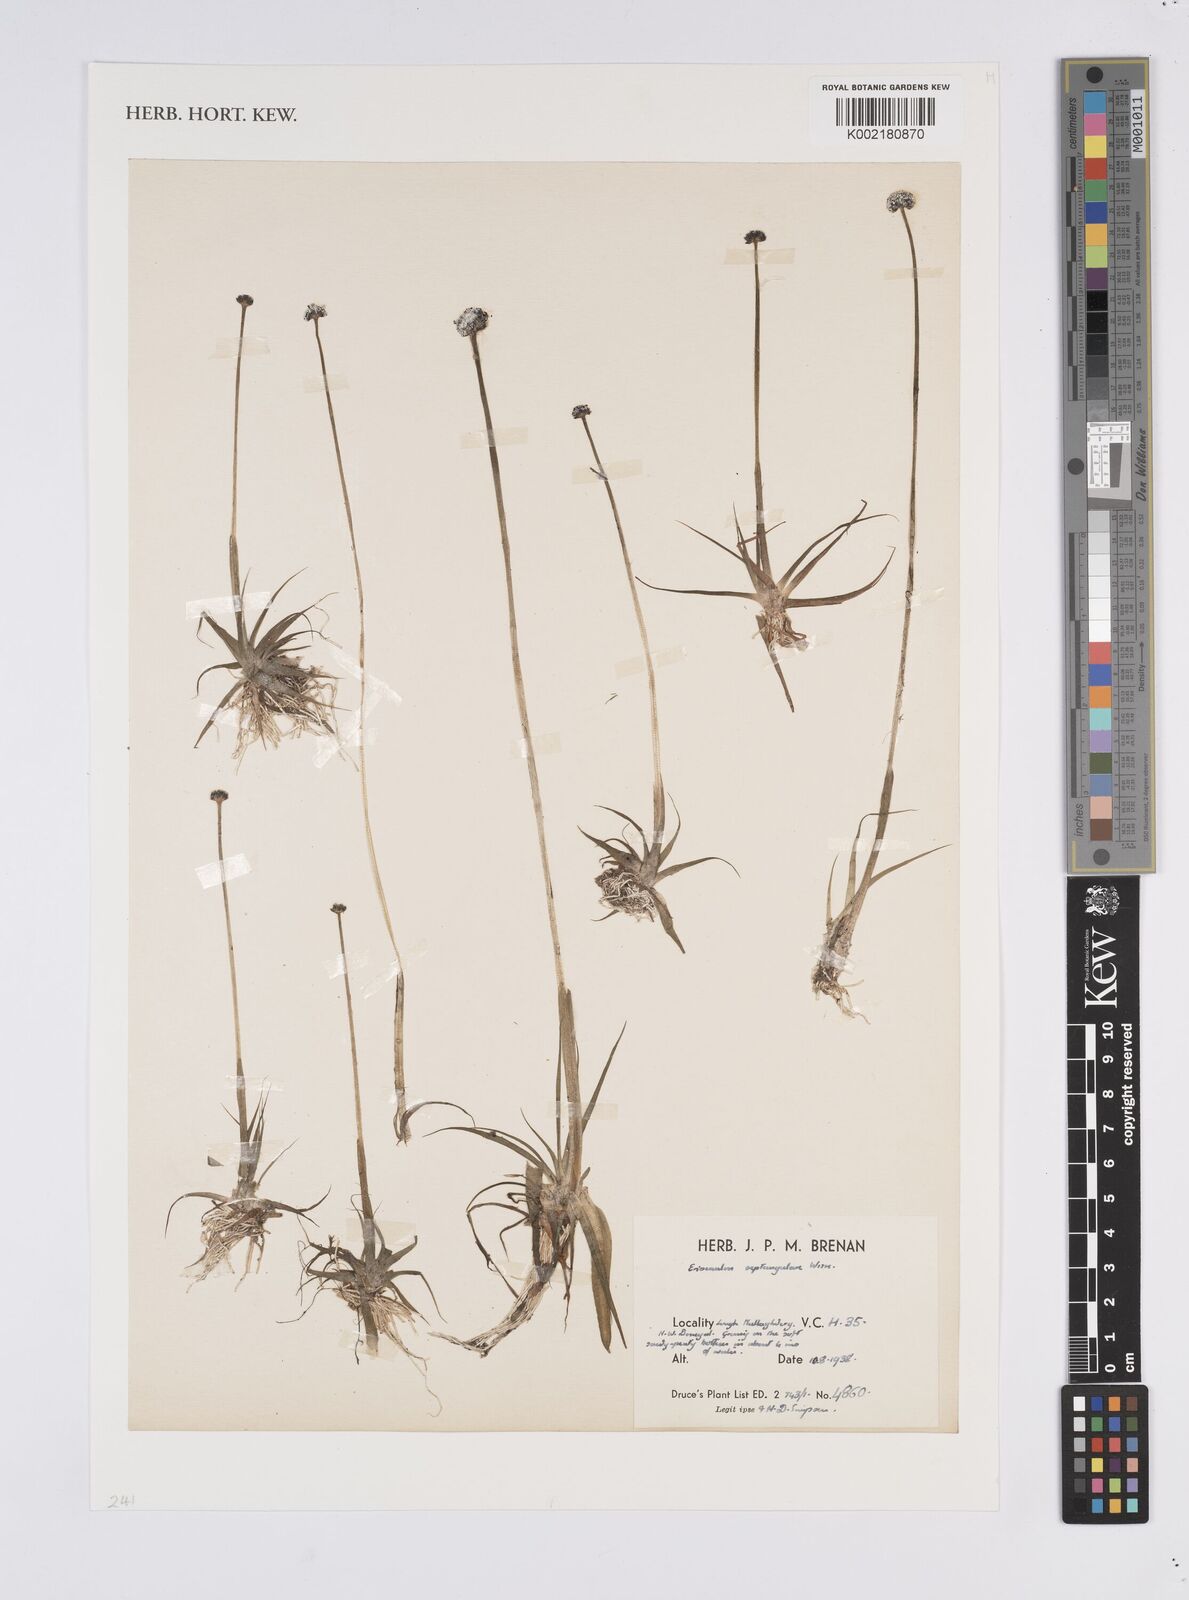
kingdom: Plantae
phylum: Tracheophyta
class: Liliopsida
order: Poales
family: Eriocaulaceae
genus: Eriocaulon
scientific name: Eriocaulon aquaticum
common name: Pipewort
